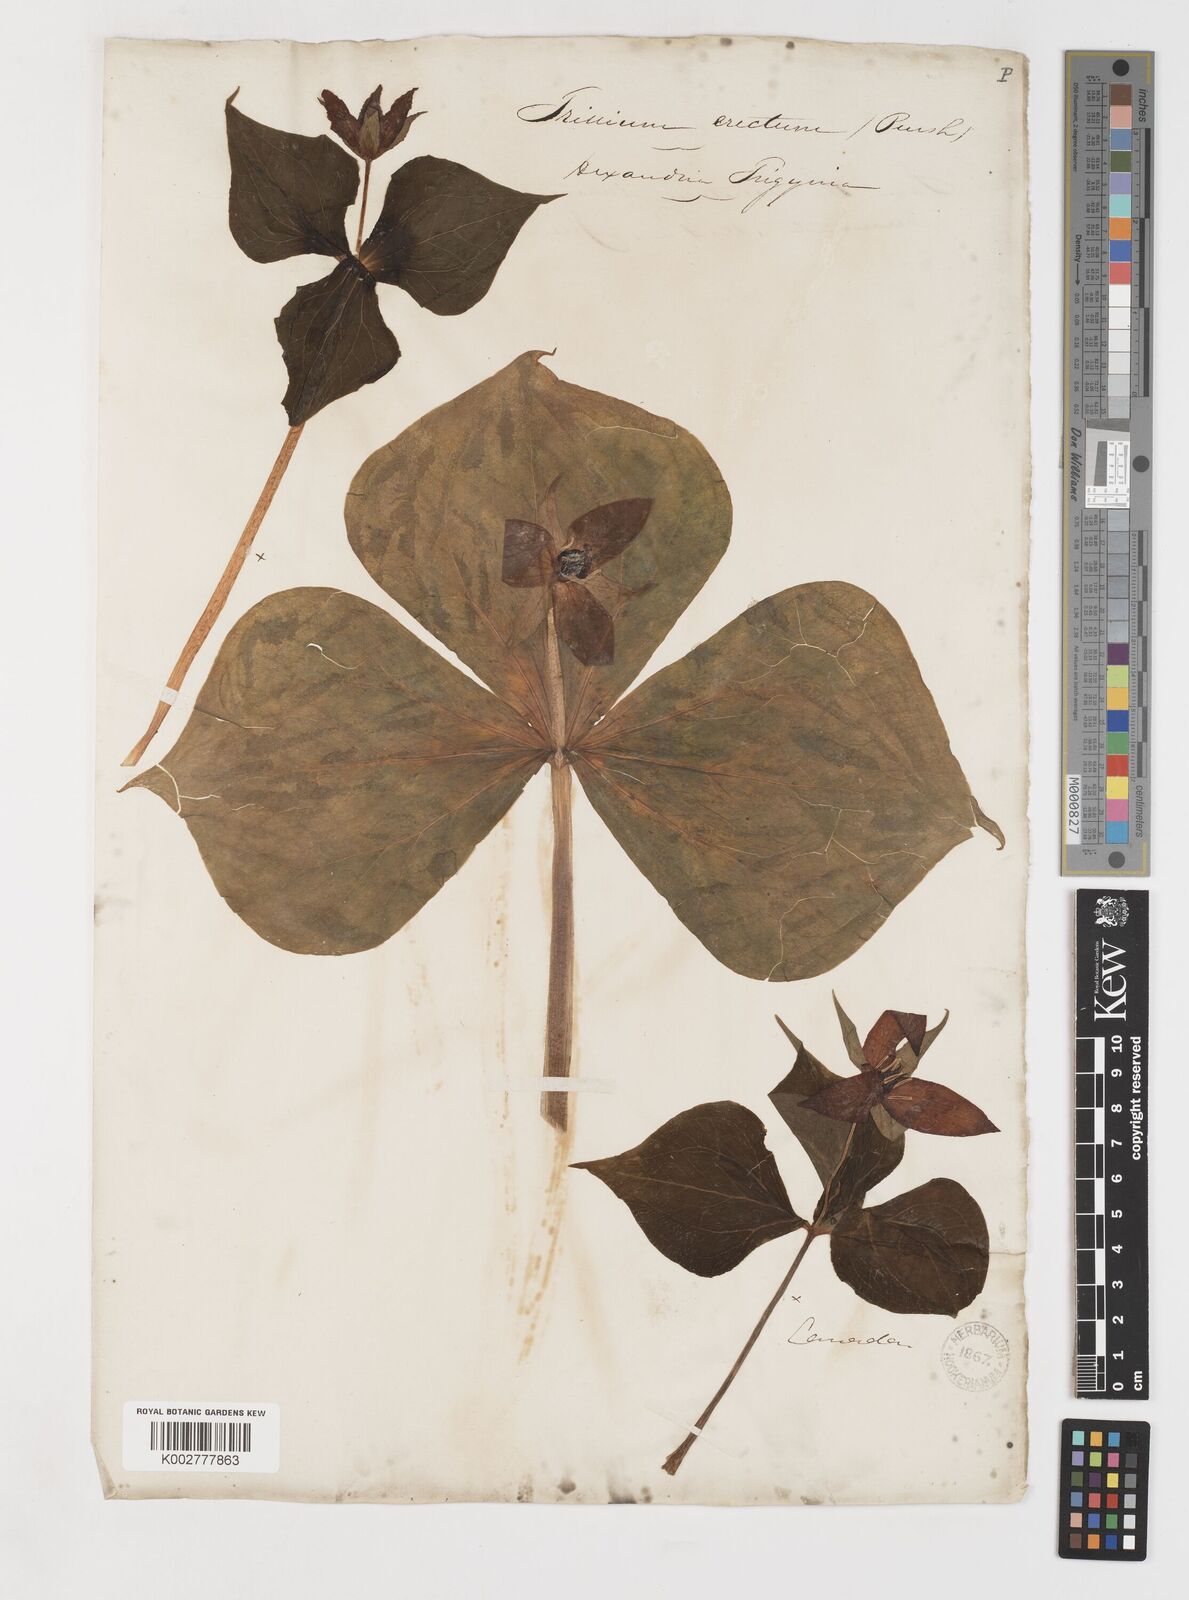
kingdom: Plantae
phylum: Tracheophyta
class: Liliopsida
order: Liliales
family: Melanthiaceae
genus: Trillium
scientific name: Trillium erectum
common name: Purple trillium
